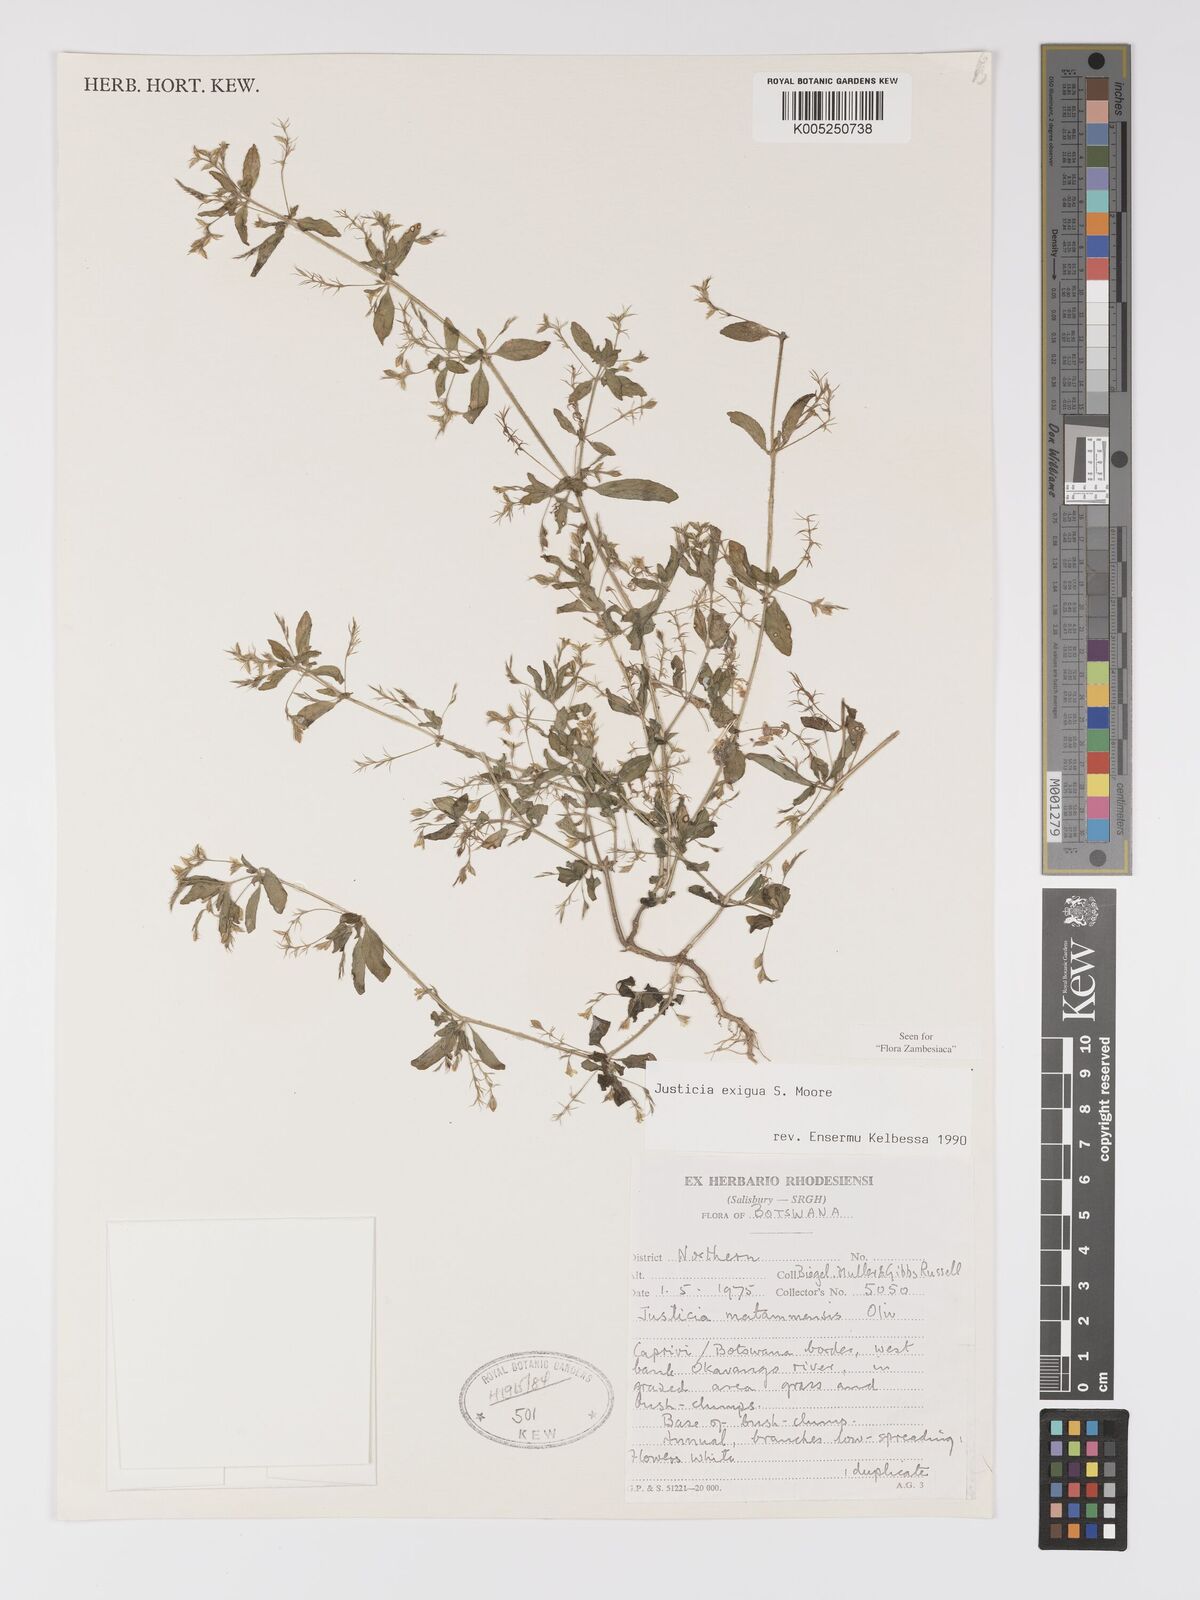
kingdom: Plantae
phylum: Tracheophyta
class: Magnoliopsida
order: Lamiales
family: Acanthaceae
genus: Justicia
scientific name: Justicia exigua
